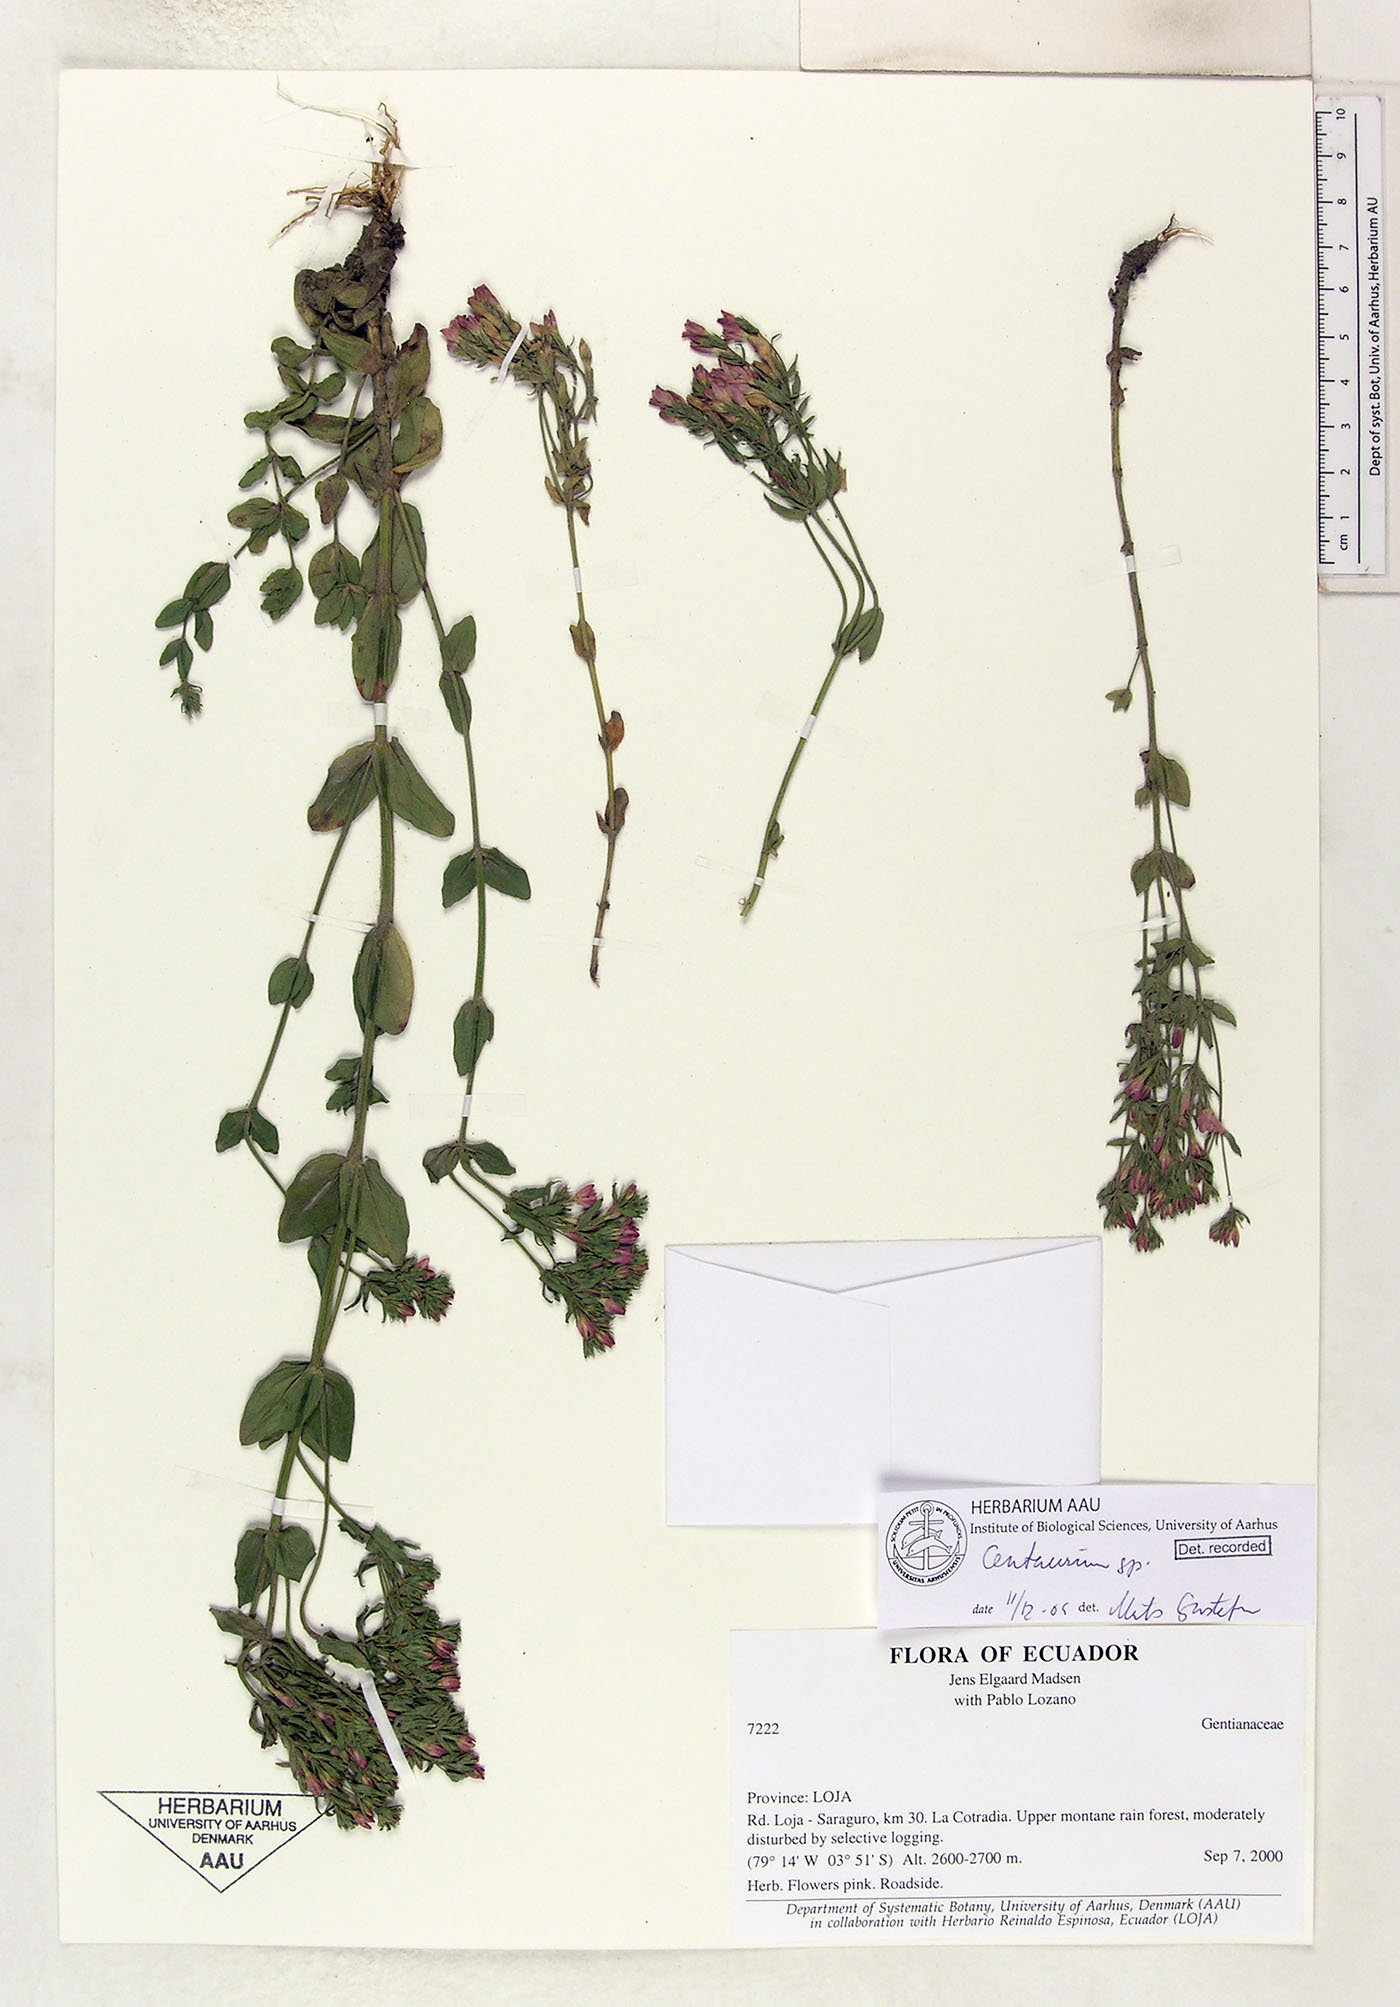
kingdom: Plantae
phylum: Tracheophyta
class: Magnoliopsida
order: Gentianales
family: Gentianaceae
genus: Centaurium
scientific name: Centaurium
